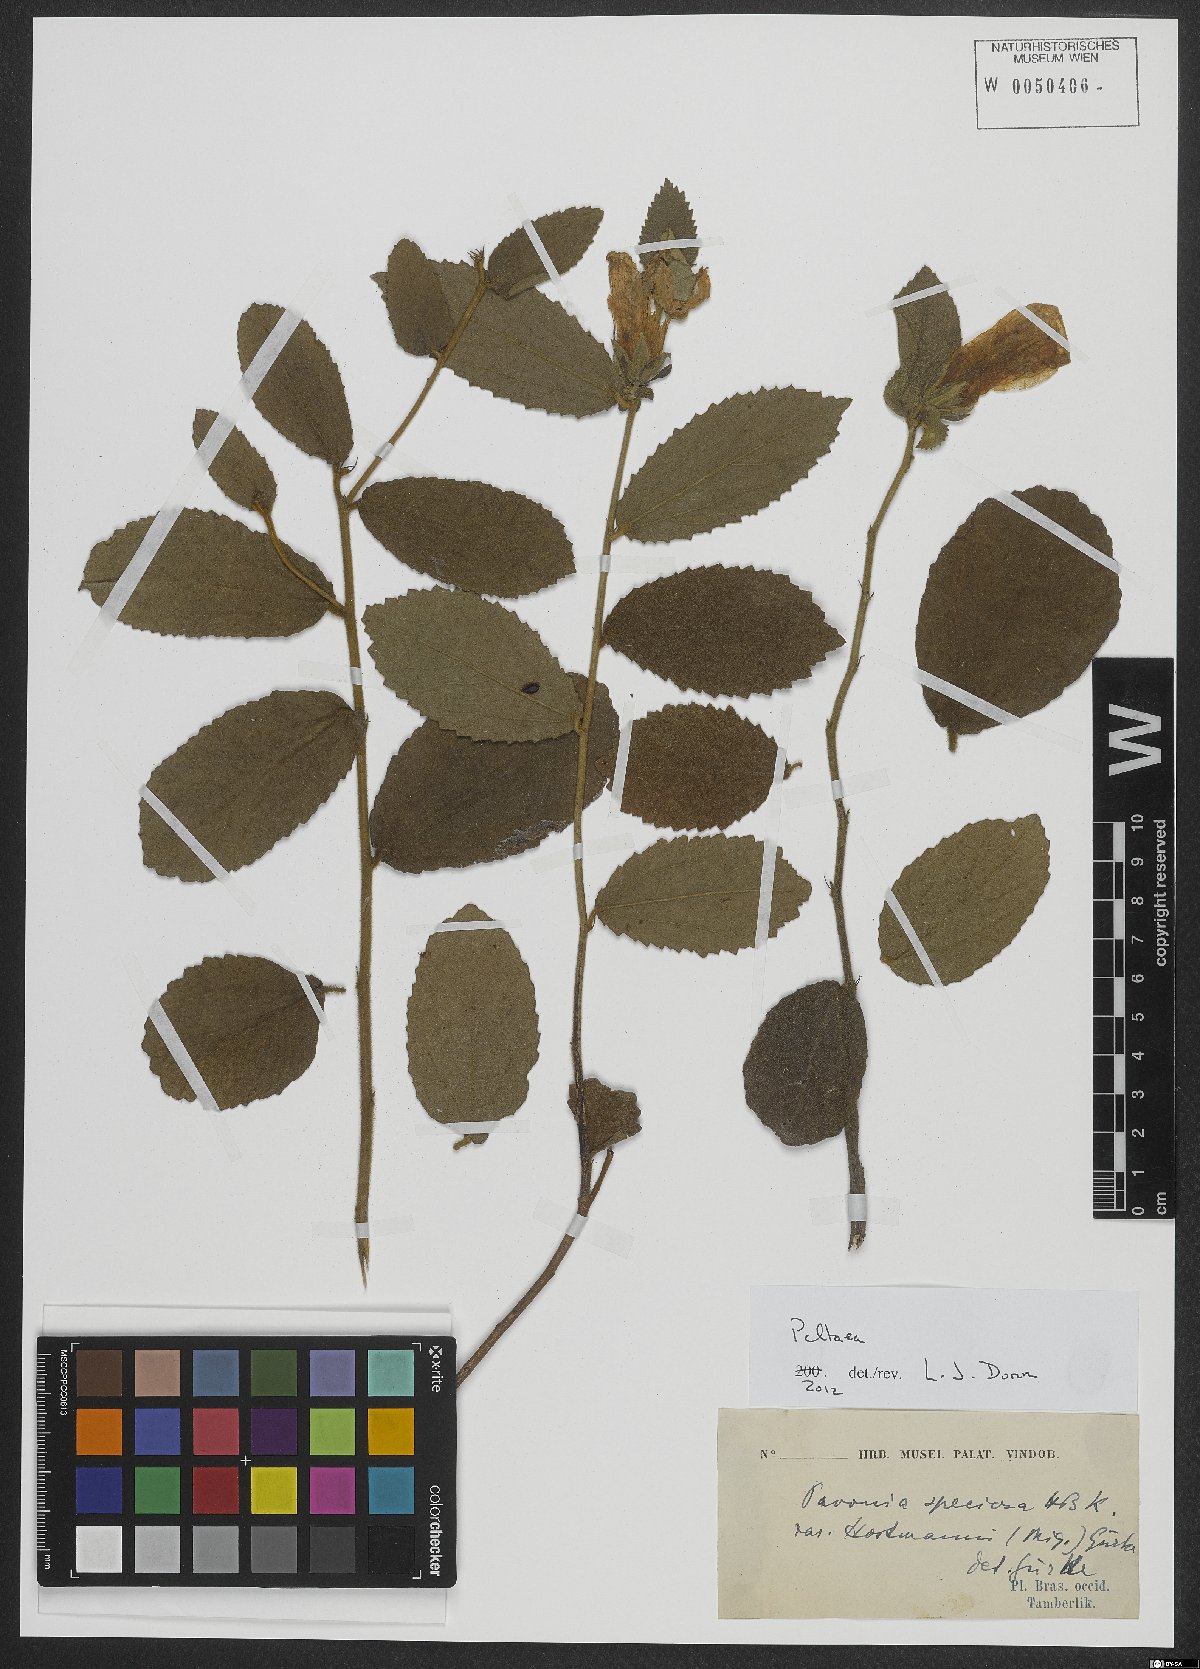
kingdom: Plantae
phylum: Tracheophyta
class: Magnoliopsida
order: Malvales
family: Malvaceae
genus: Peltaea
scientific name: Peltaea
